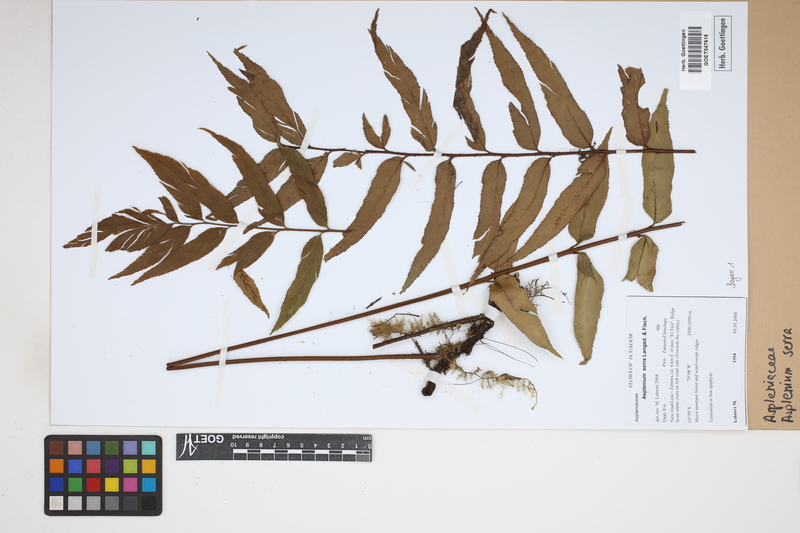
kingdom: Plantae
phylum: Tracheophyta
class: Polypodiopsida
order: Polypodiales
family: Aspleniaceae
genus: Asplenium
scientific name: Asplenium serra
